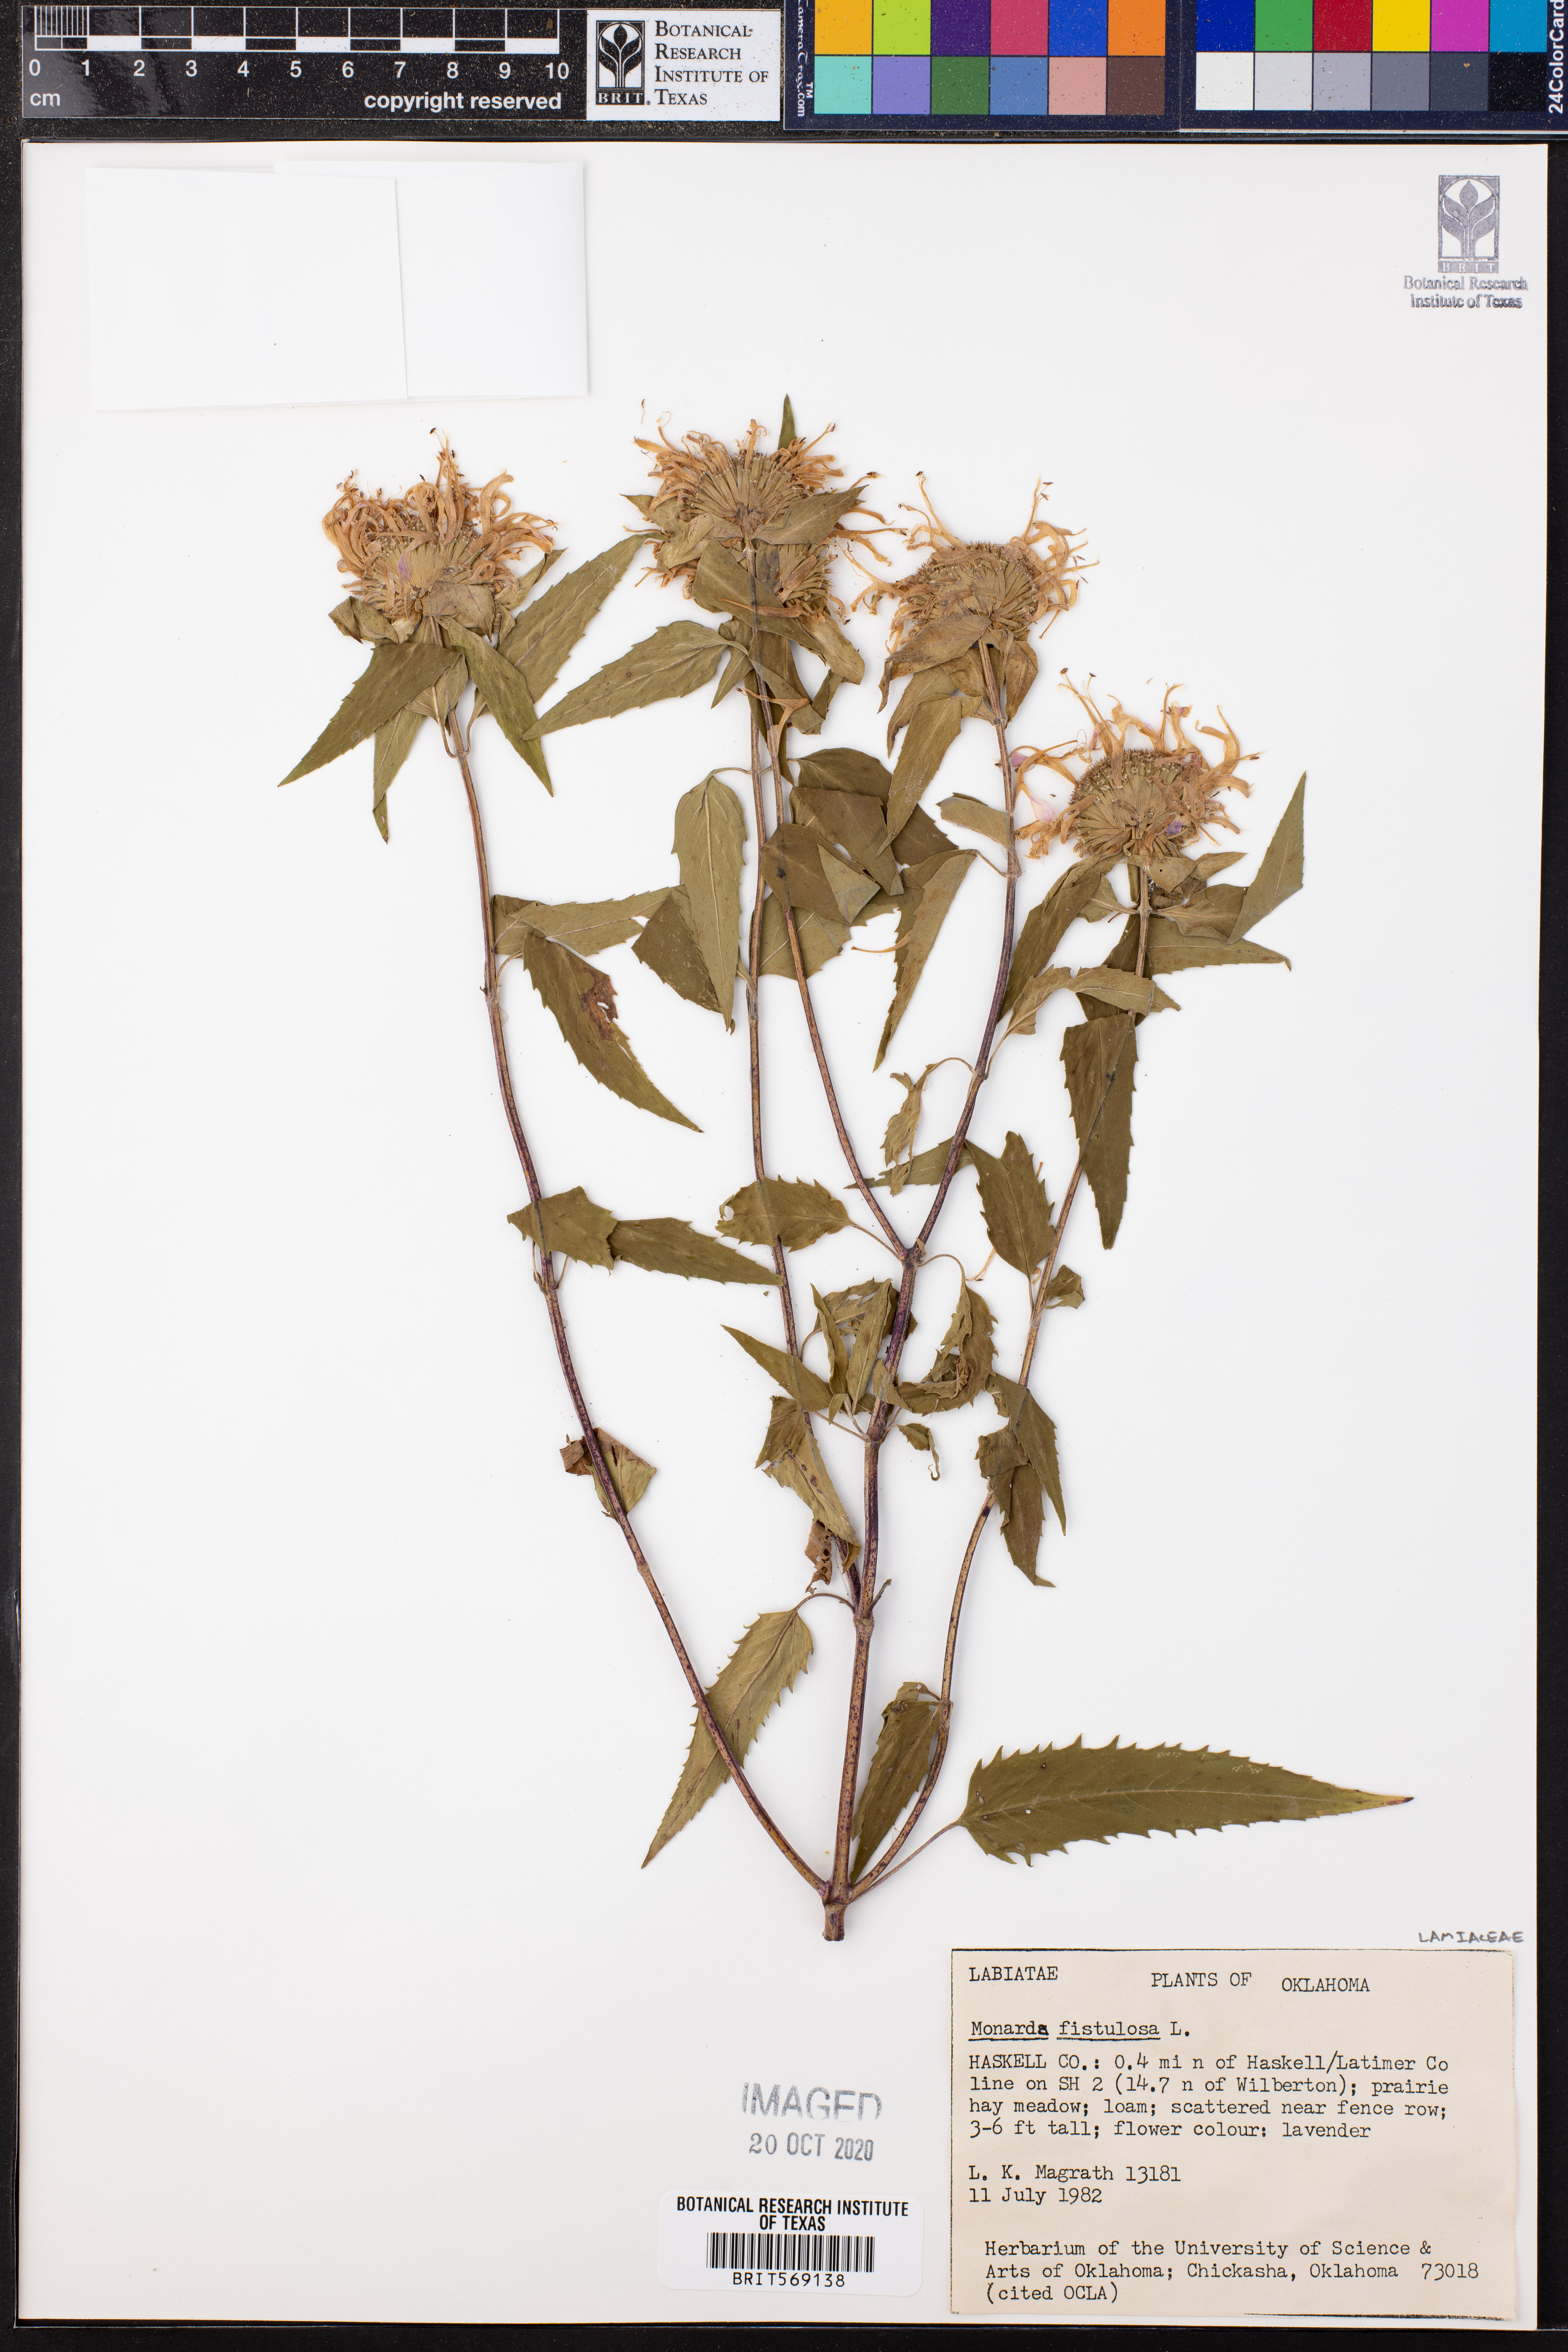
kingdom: Plantae
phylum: Tracheophyta
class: Magnoliopsida
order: Lamiales
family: Lamiaceae
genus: Monarda
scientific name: Monarda fistulosa
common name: Purple beebalm
